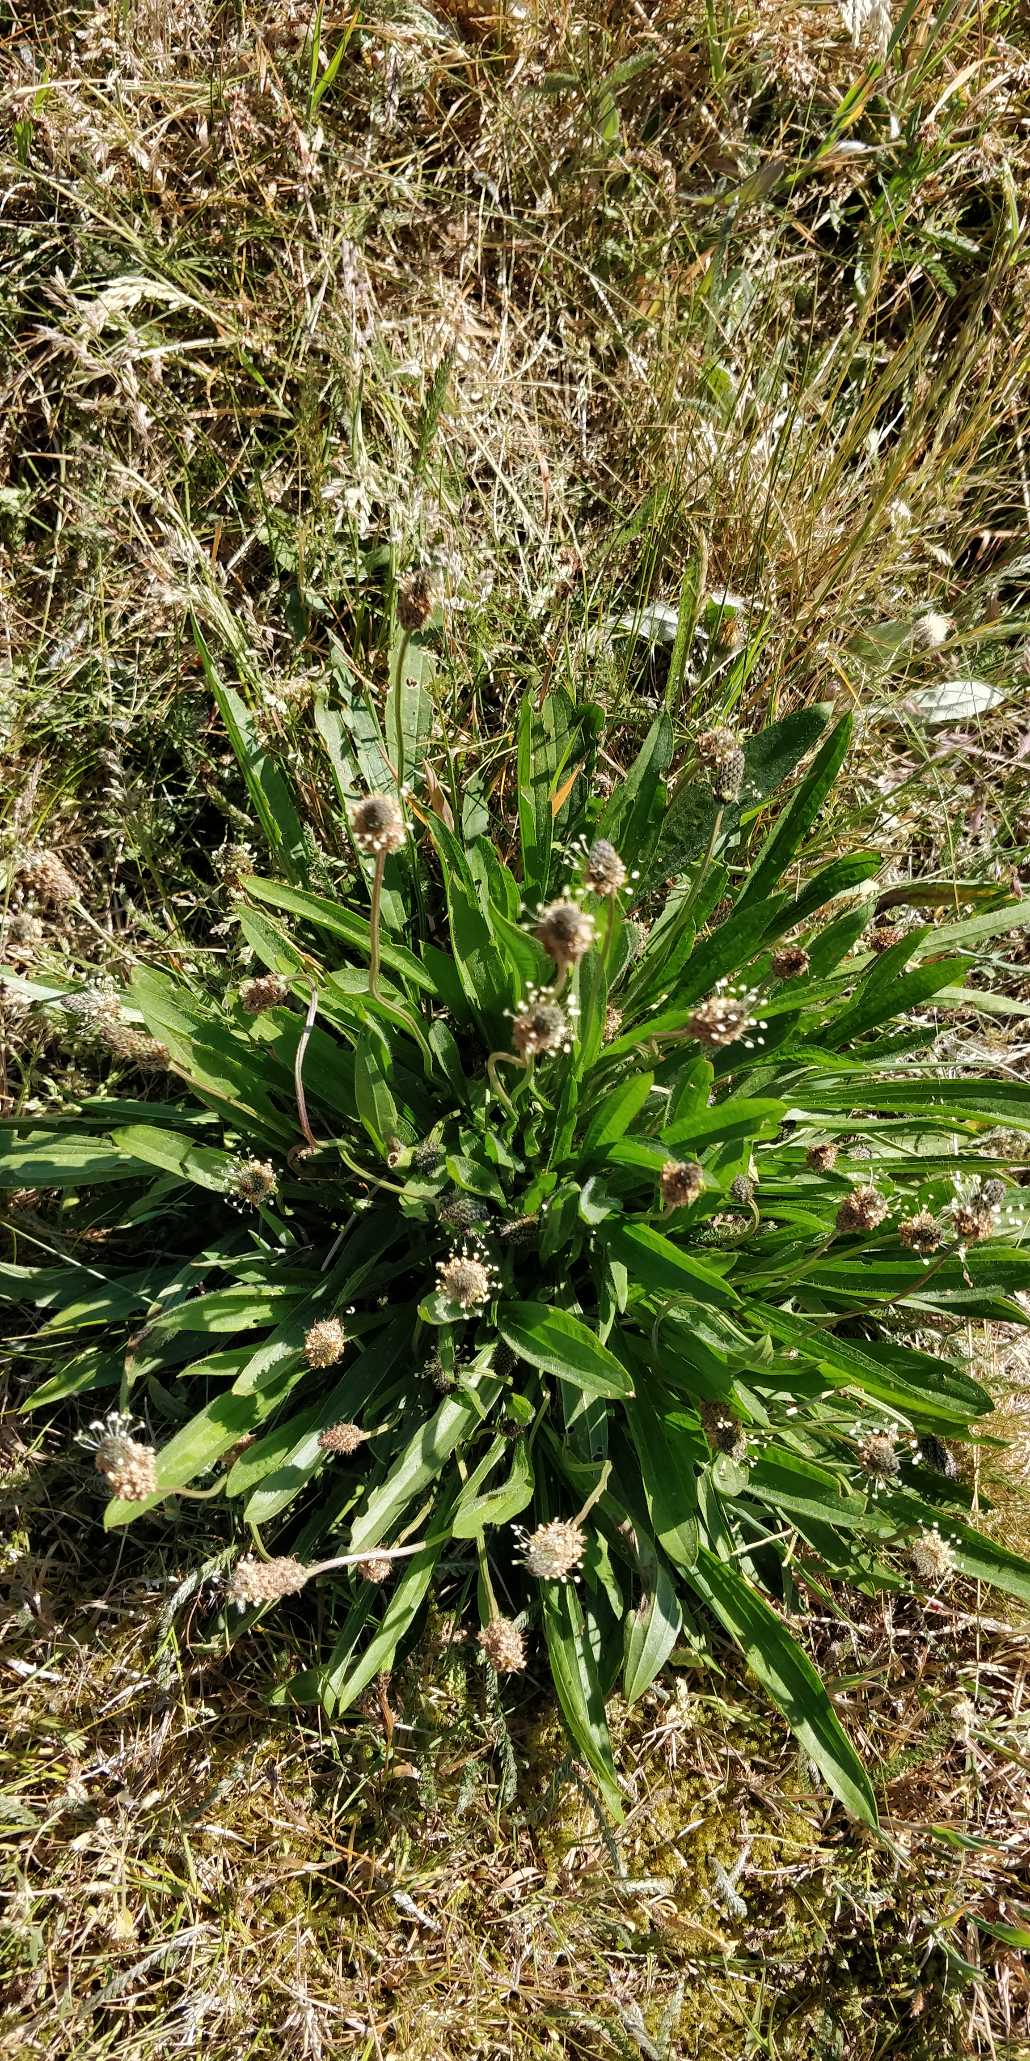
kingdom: Plantae
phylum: Tracheophyta
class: Magnoliopsida
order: Lamiales
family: Plantaginaceae
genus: Plantago
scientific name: Plantago lanceolata
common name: Lancet-vejbred
